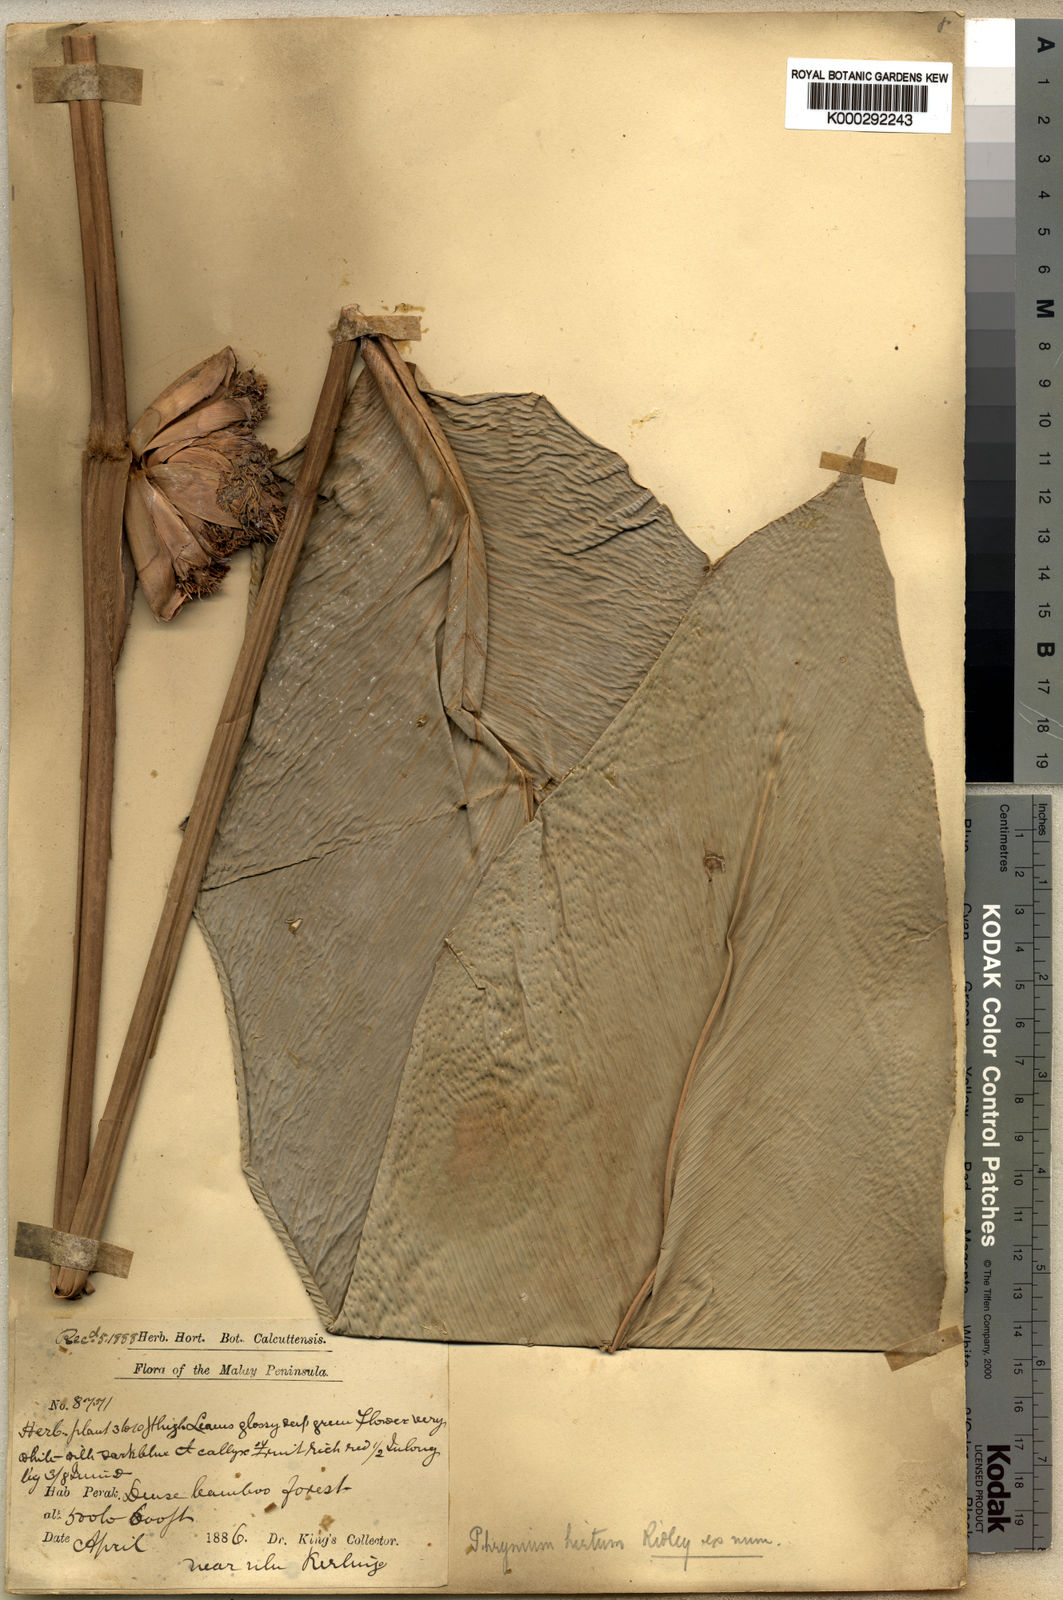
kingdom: Plantae
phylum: Tracheophyta
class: Liliopsida
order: Zingiberales
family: Marantaceae
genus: Phrynium
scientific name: Phrynium hirtum
